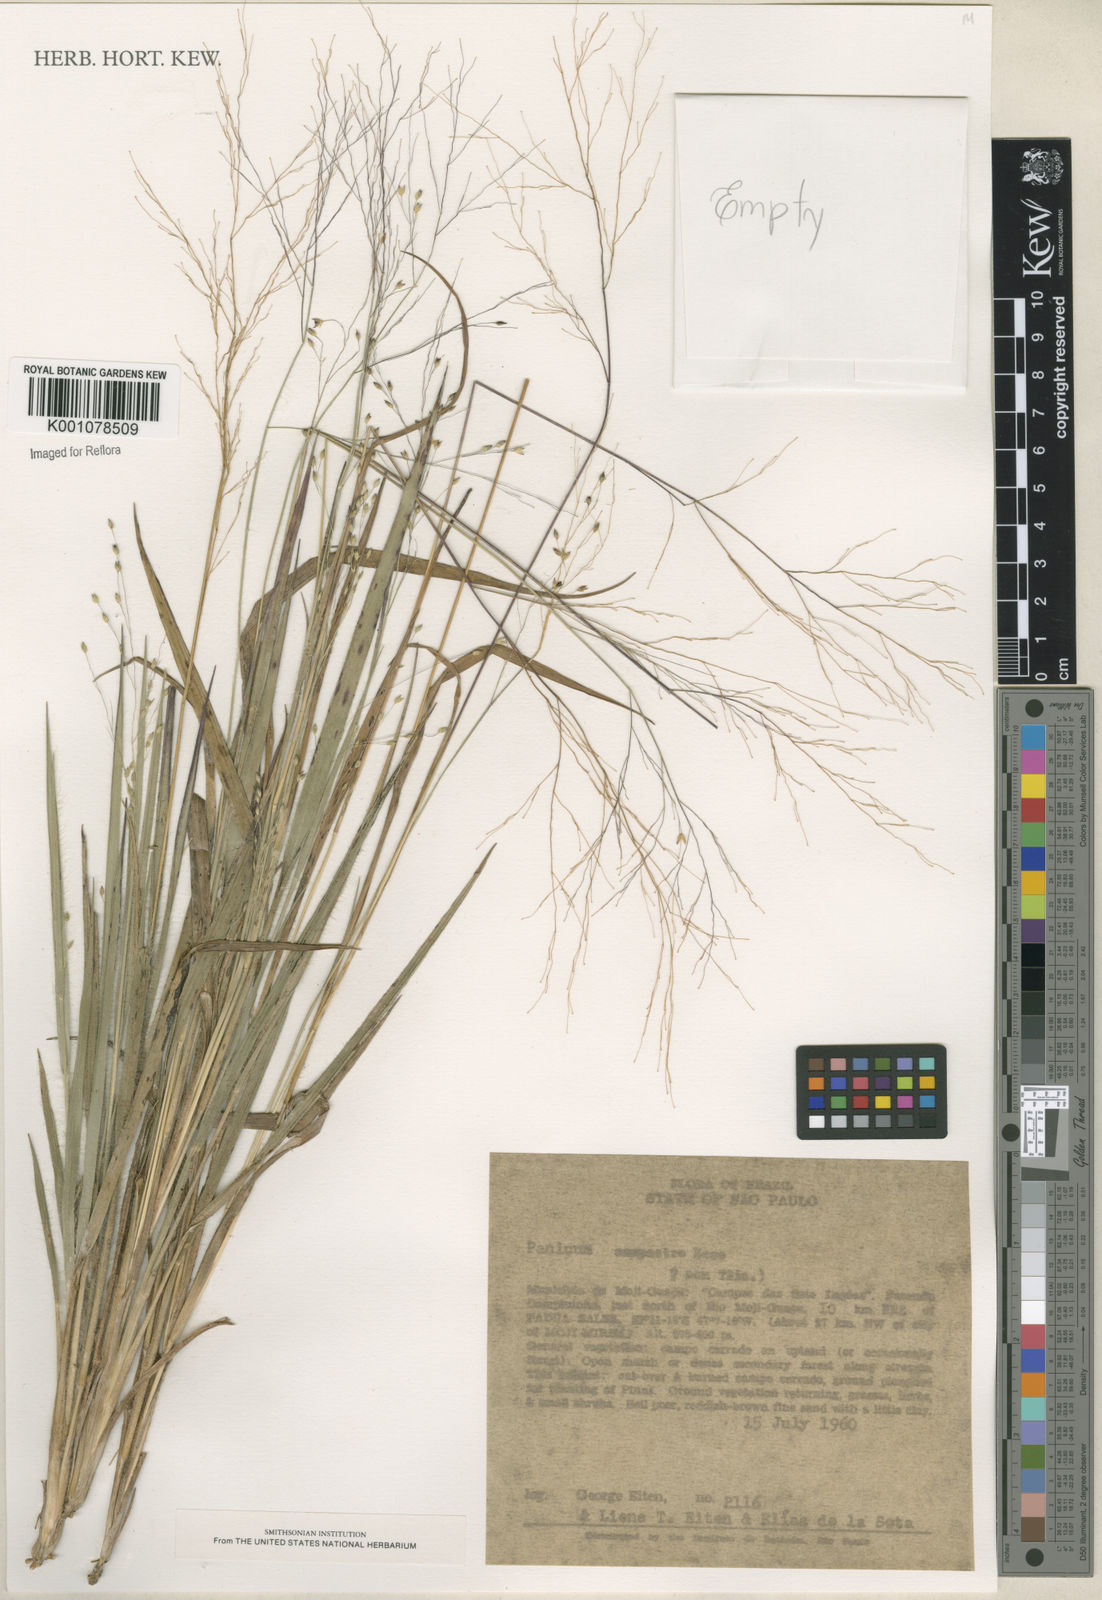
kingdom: Plantae
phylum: Tracheophyta
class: Liliopsida
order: Poales
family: Poaceae
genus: Panicum
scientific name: Panicum campestre
